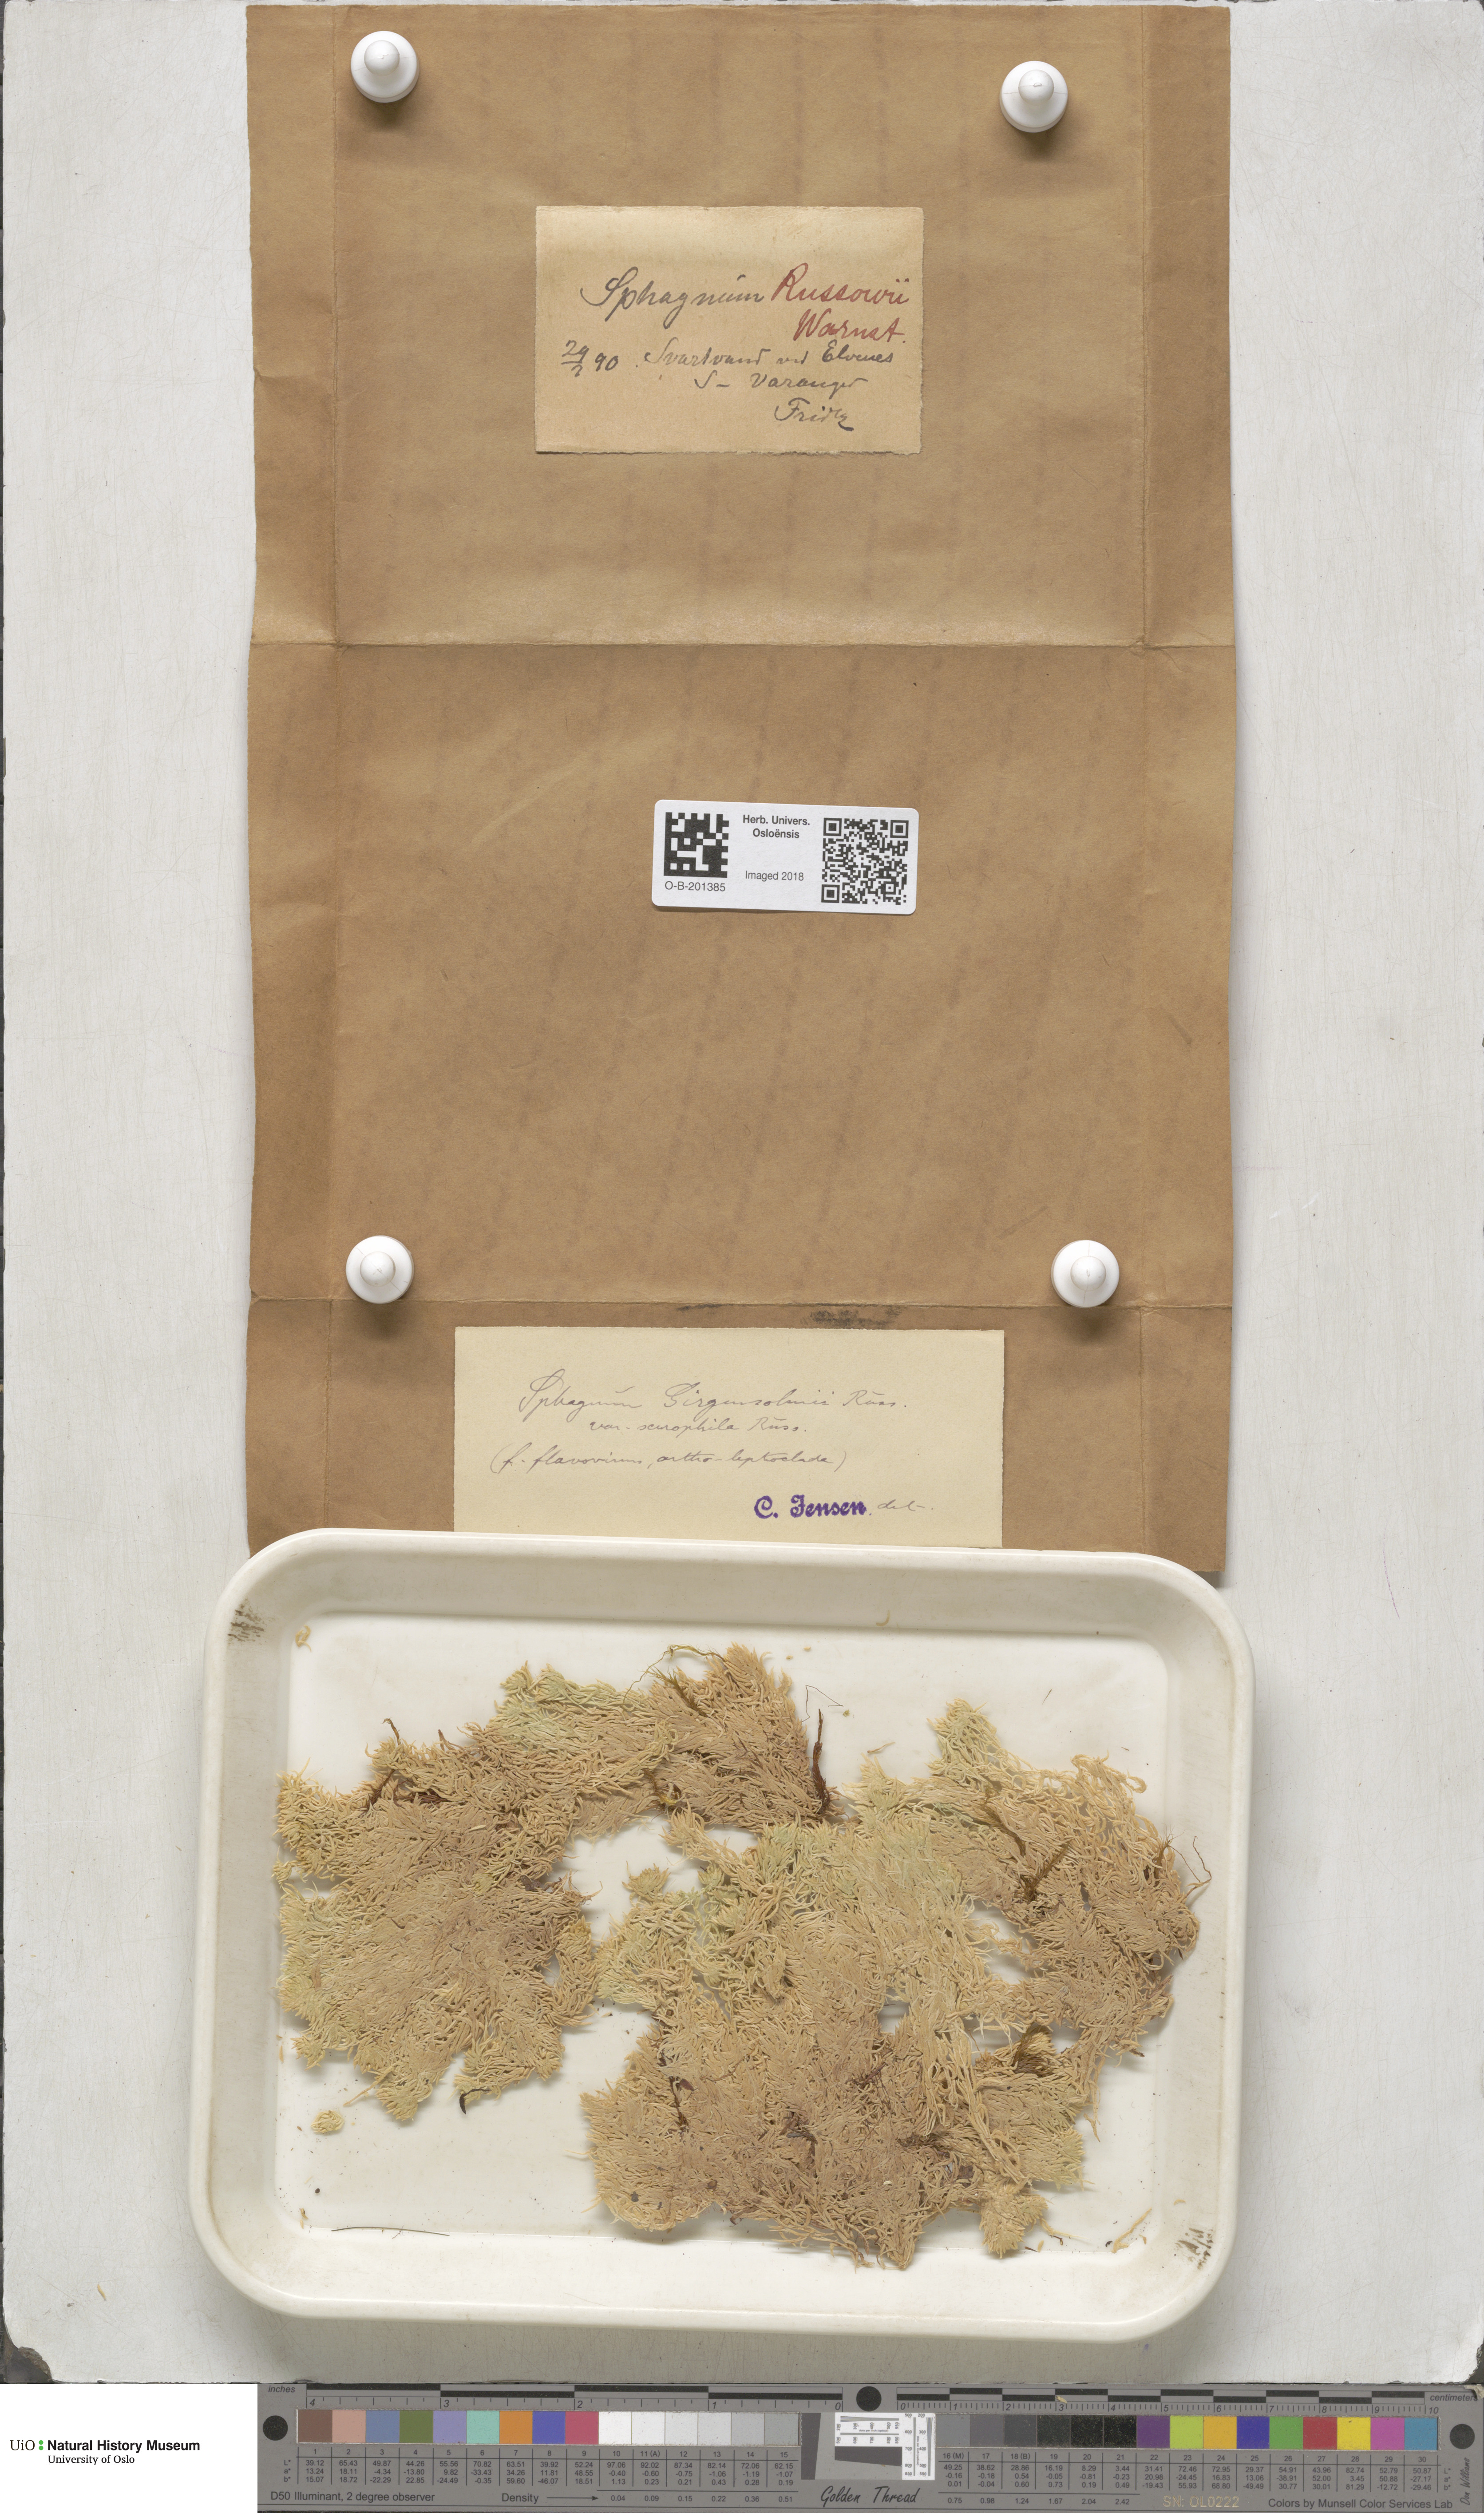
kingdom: Plantae
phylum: Bryophyta
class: Sphagnopsida
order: Sphagnales
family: Sphagnaceae
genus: Sphagnum
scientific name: Sphagnum girgensohnii
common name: Girgensohn's peat moss
